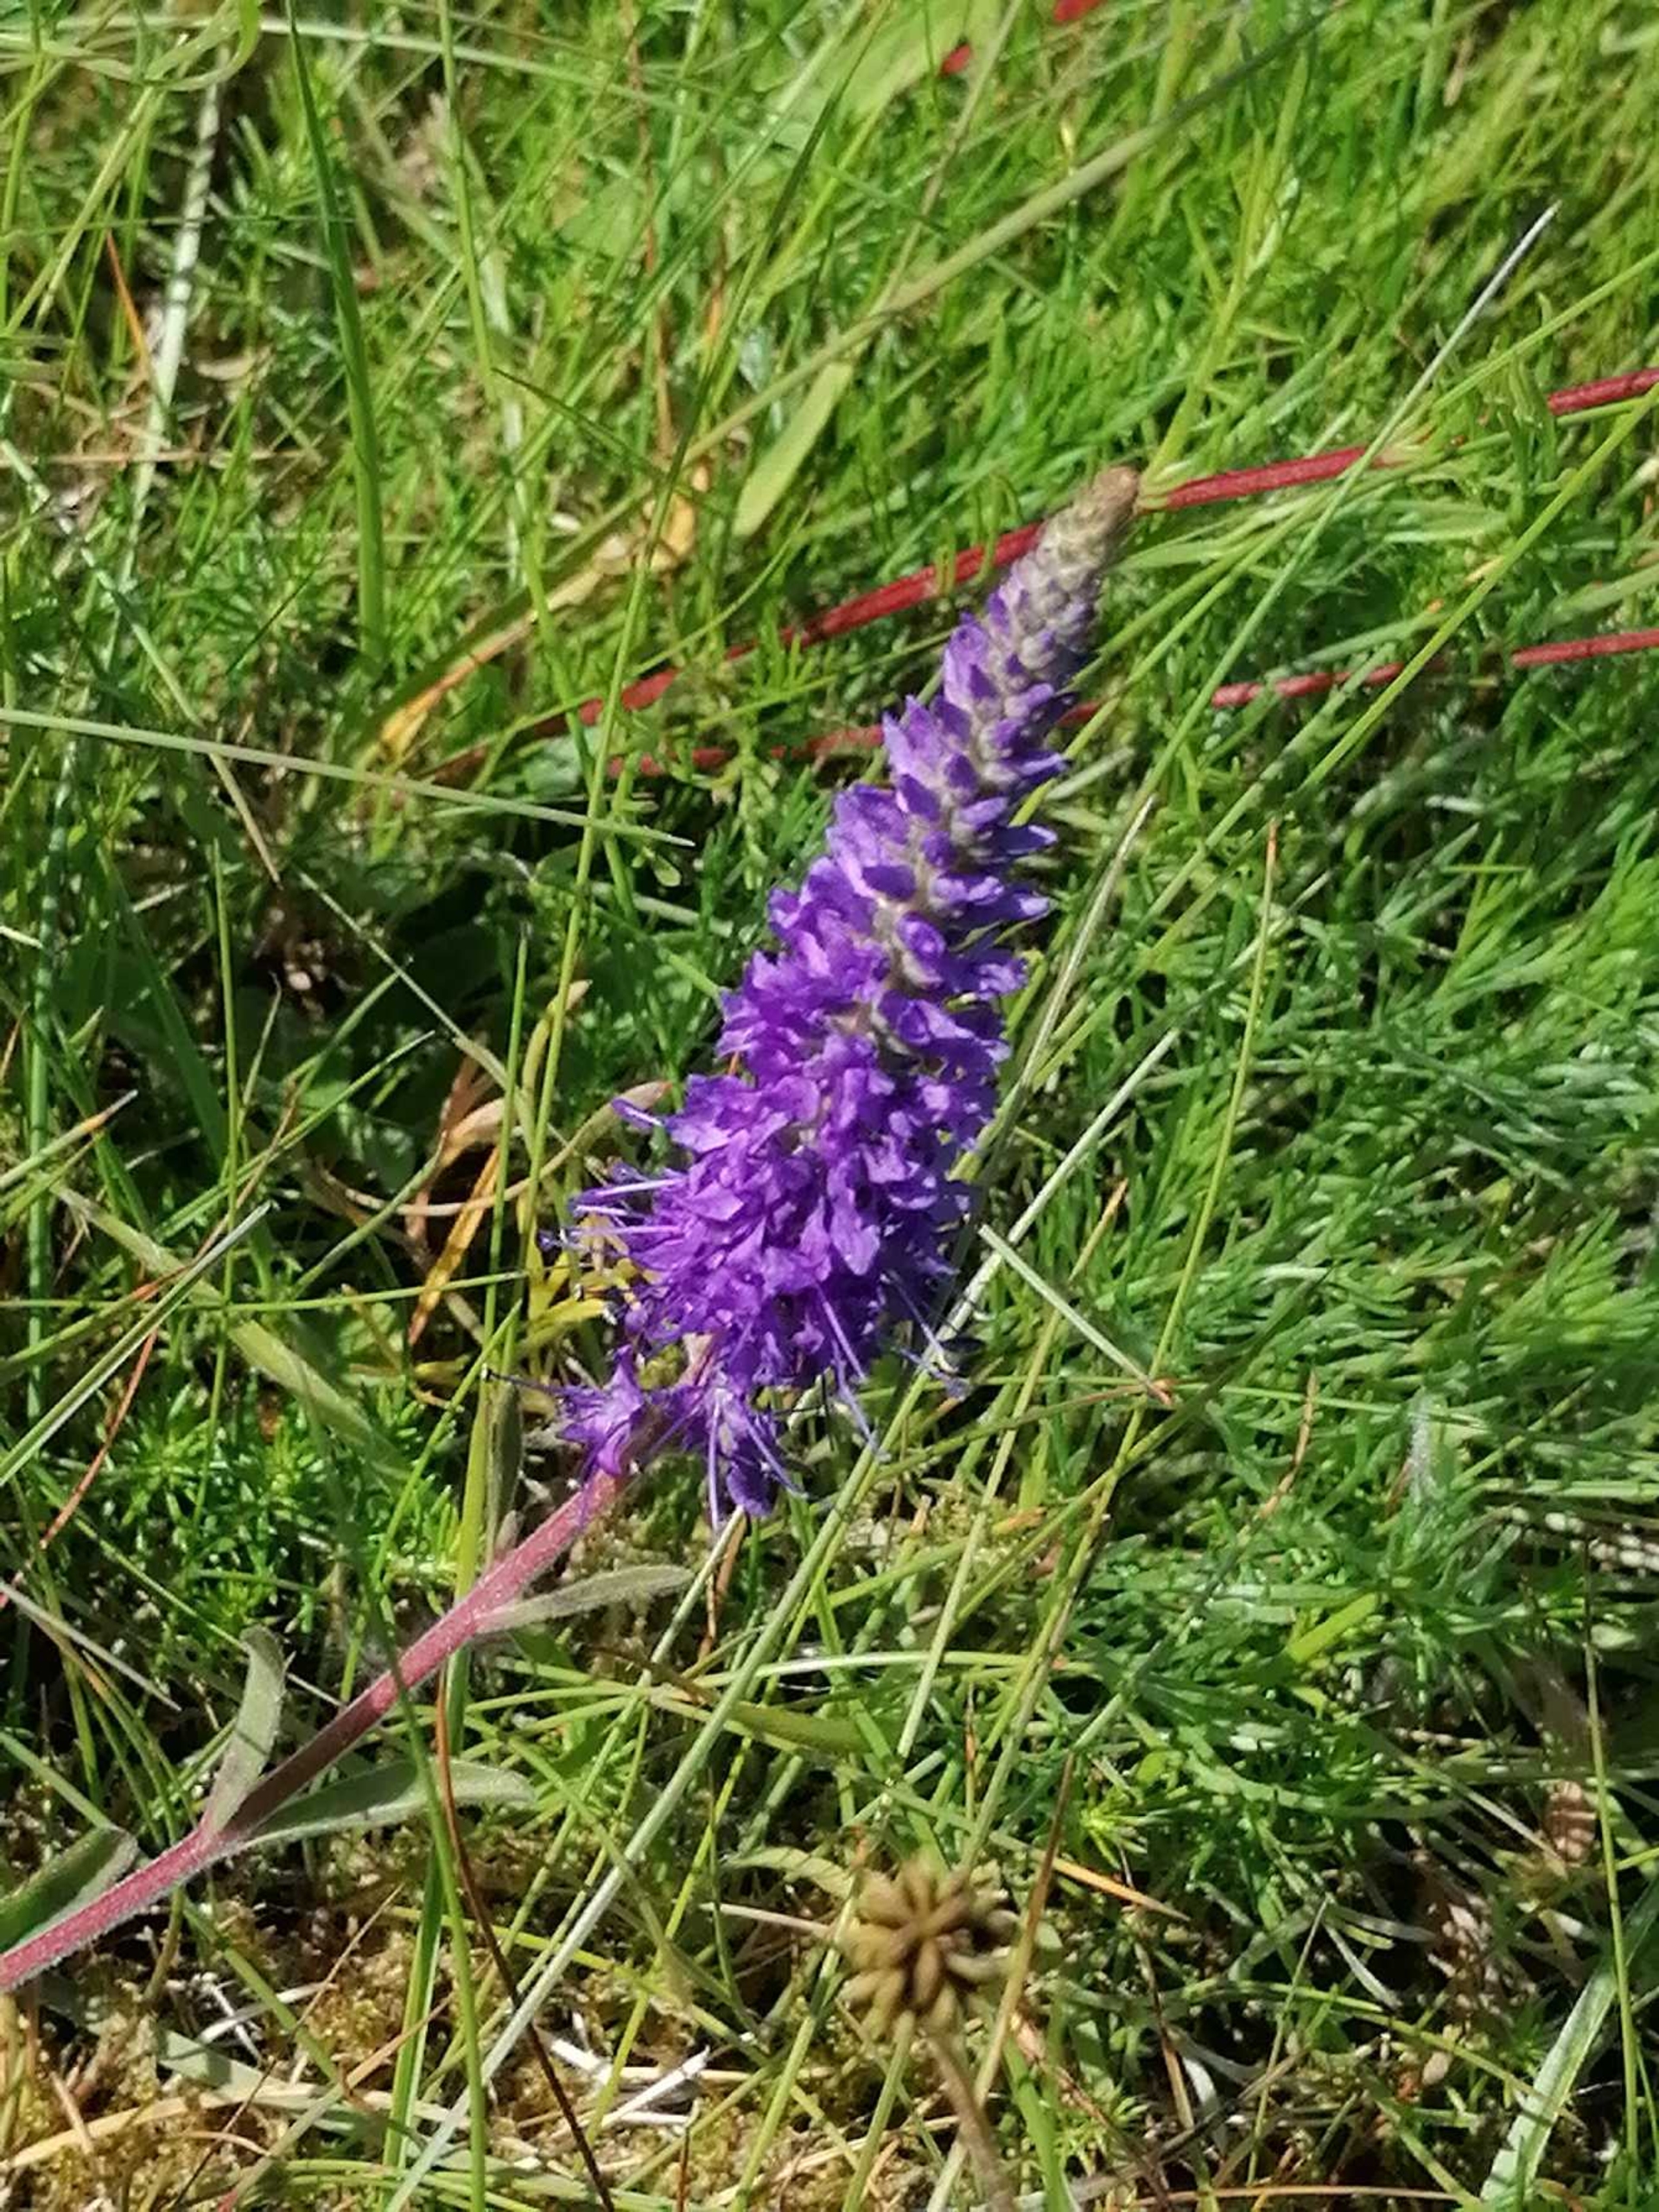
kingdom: Plantae
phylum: Tracheophyta
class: Magnoliopsida
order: Lamiales
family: Plantaginaceae
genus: Veronica
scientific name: Veronica spicata
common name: Aks-ærenpris
